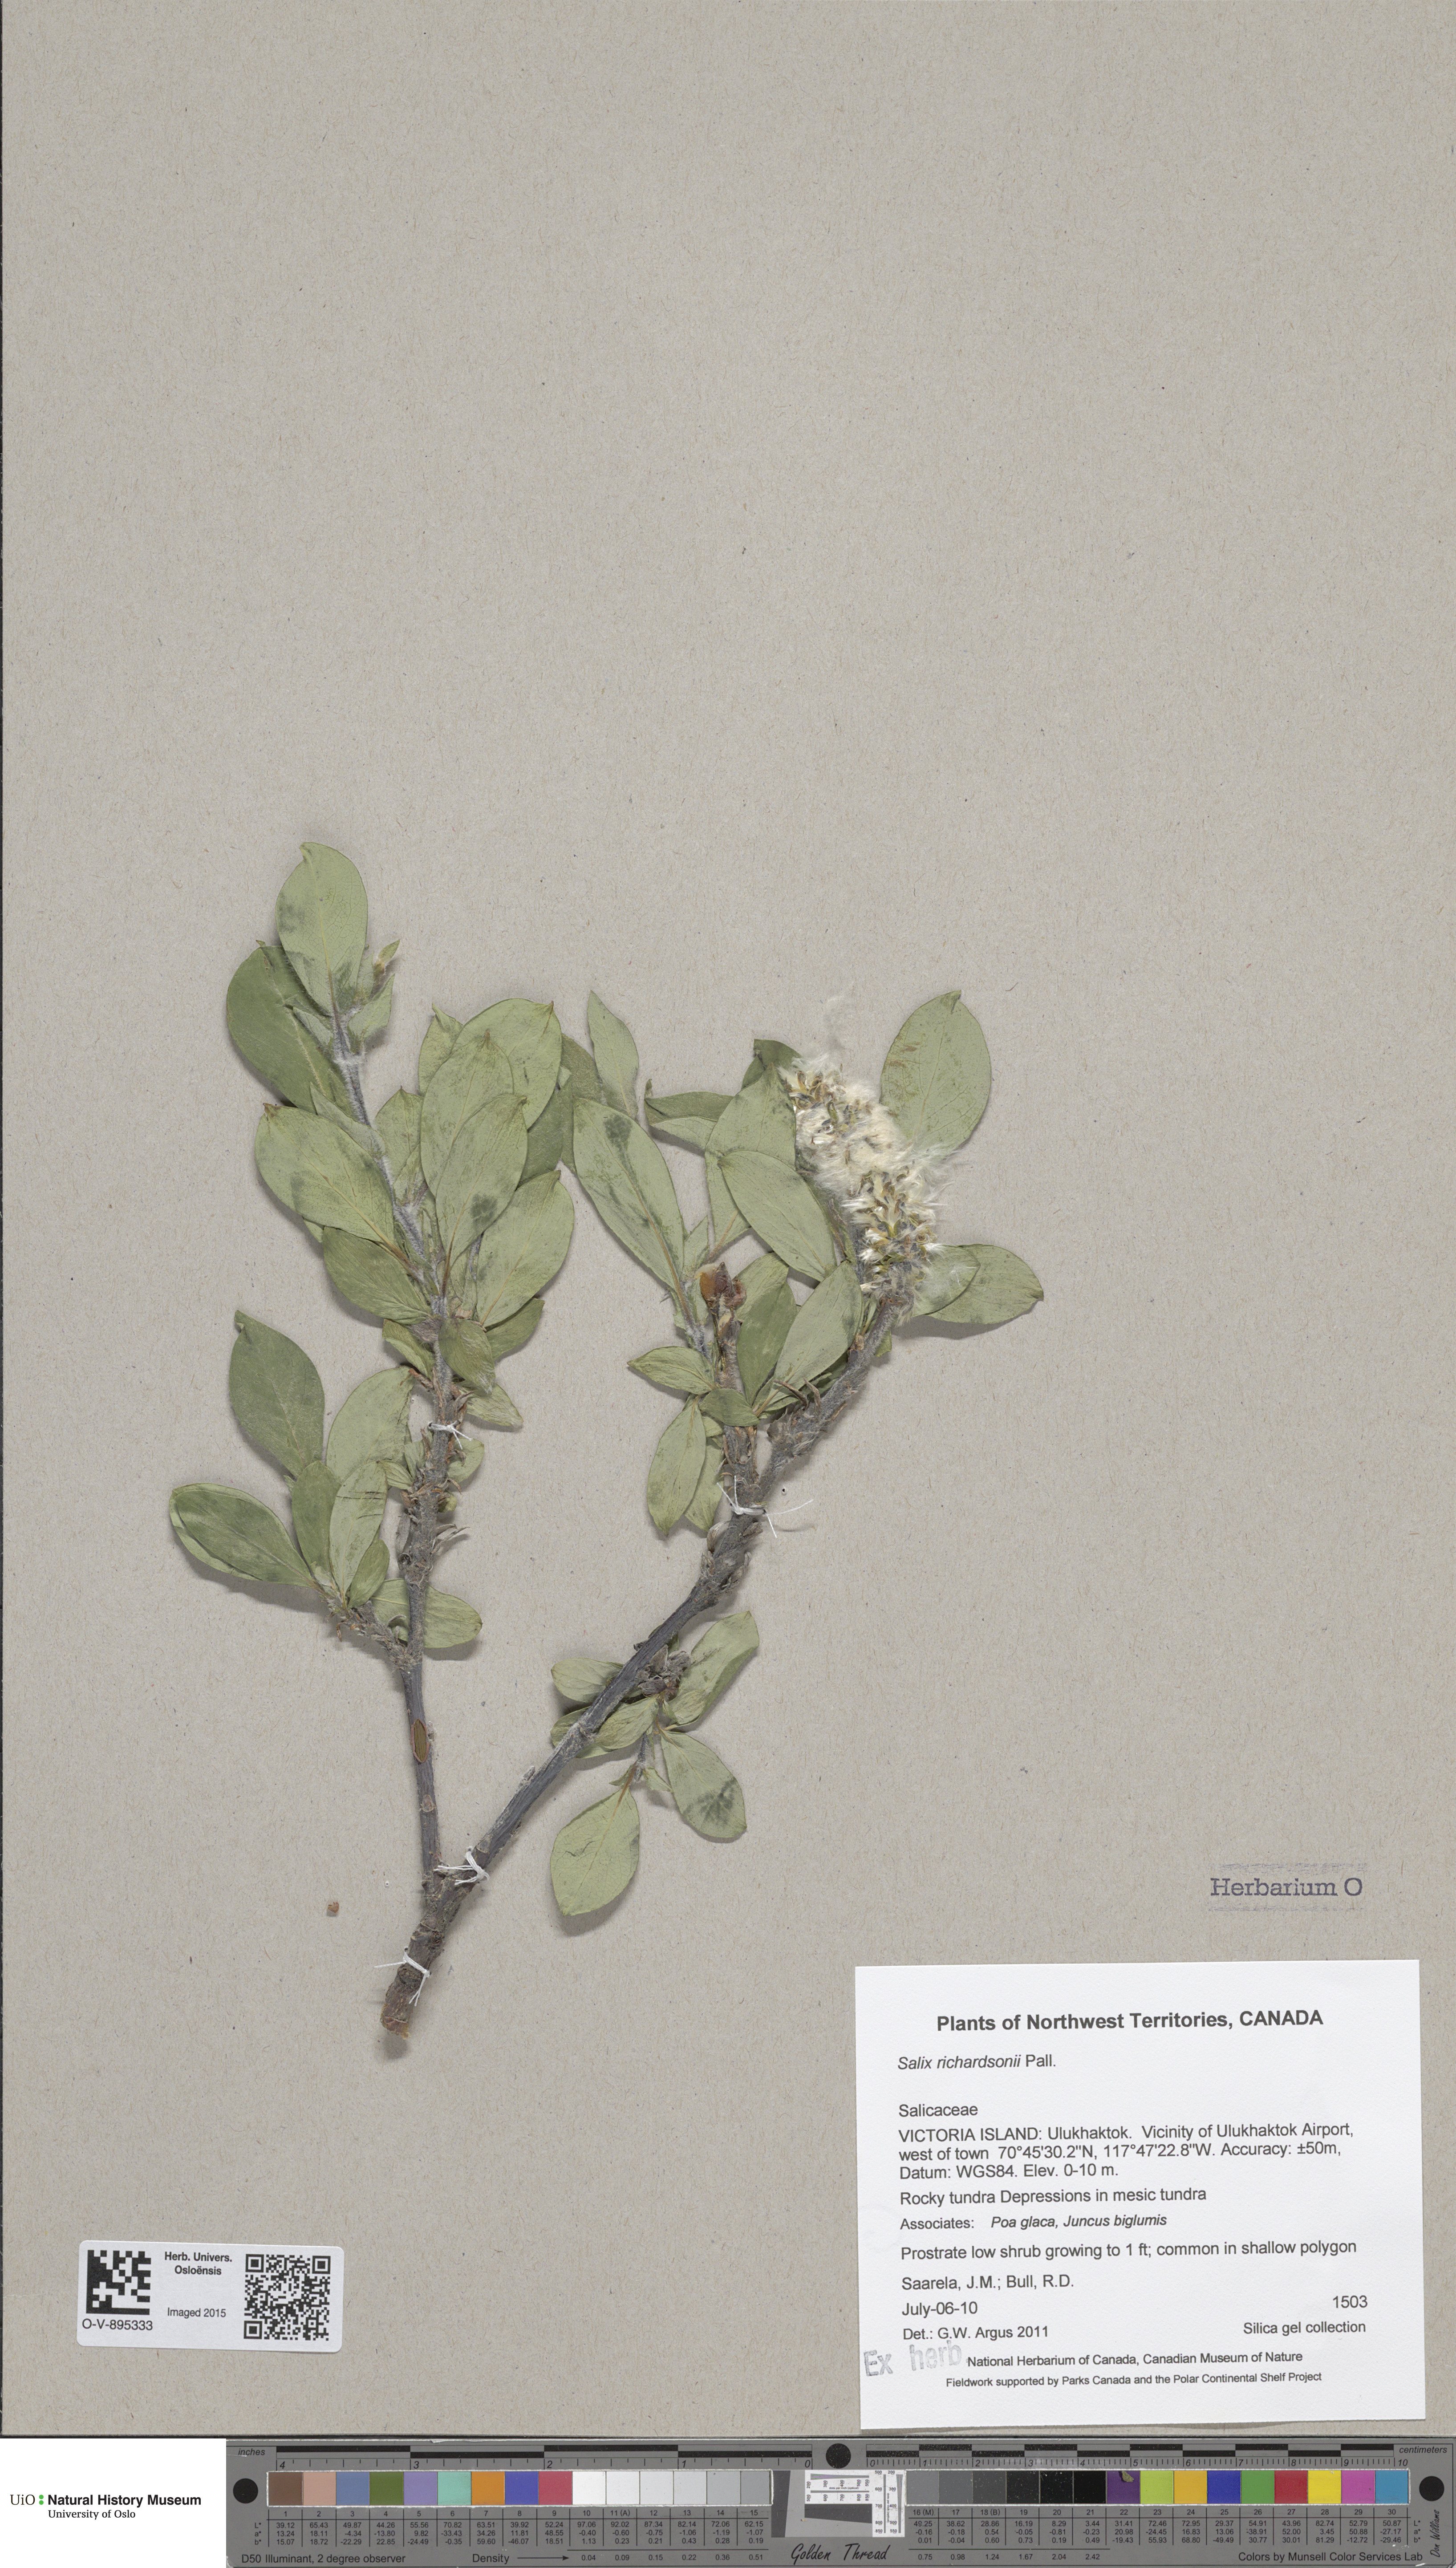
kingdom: Plantae
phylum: Tracheophyta
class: Magnoliopsida
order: Malpighiales
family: Salicaceae
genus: Salix
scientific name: Salix richardsonii
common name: Richardson’s willow
